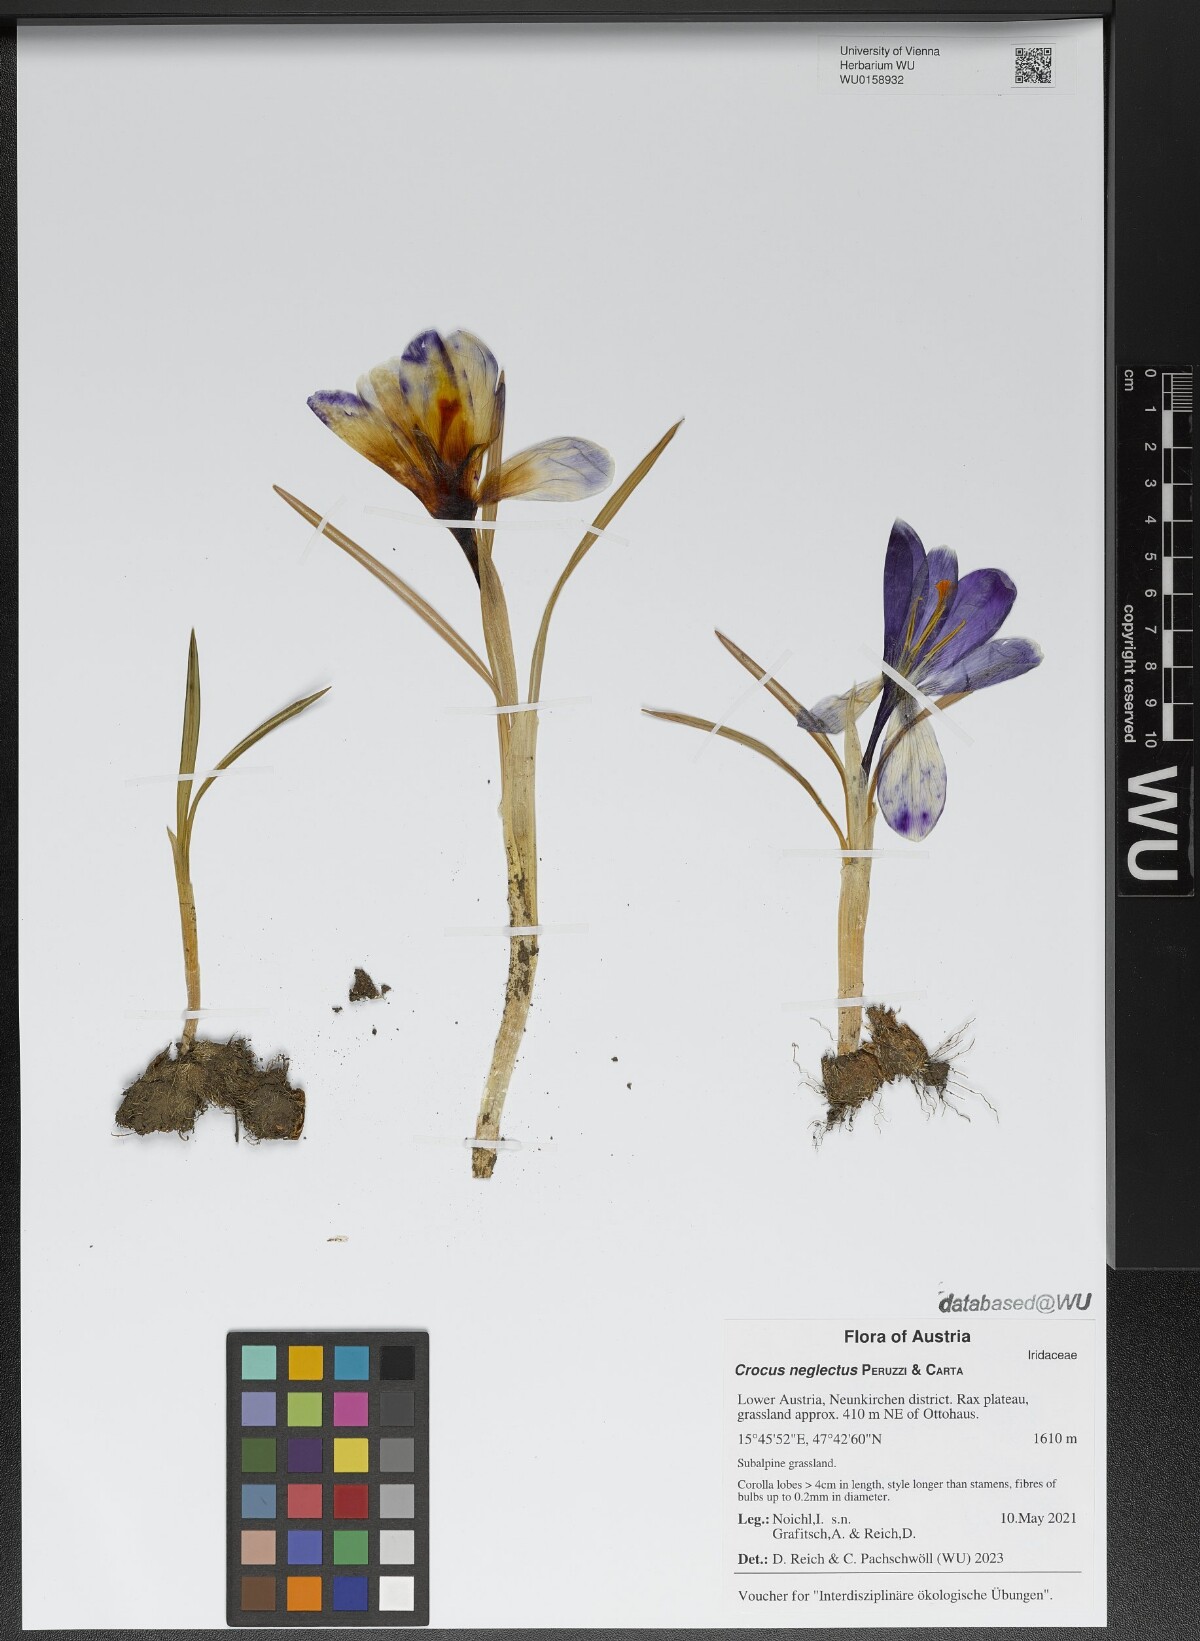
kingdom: Plantae
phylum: Tracheophyta
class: Liliopsida
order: Asparagales
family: Iridaceae
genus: Crocus
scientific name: Crocus neglectus
